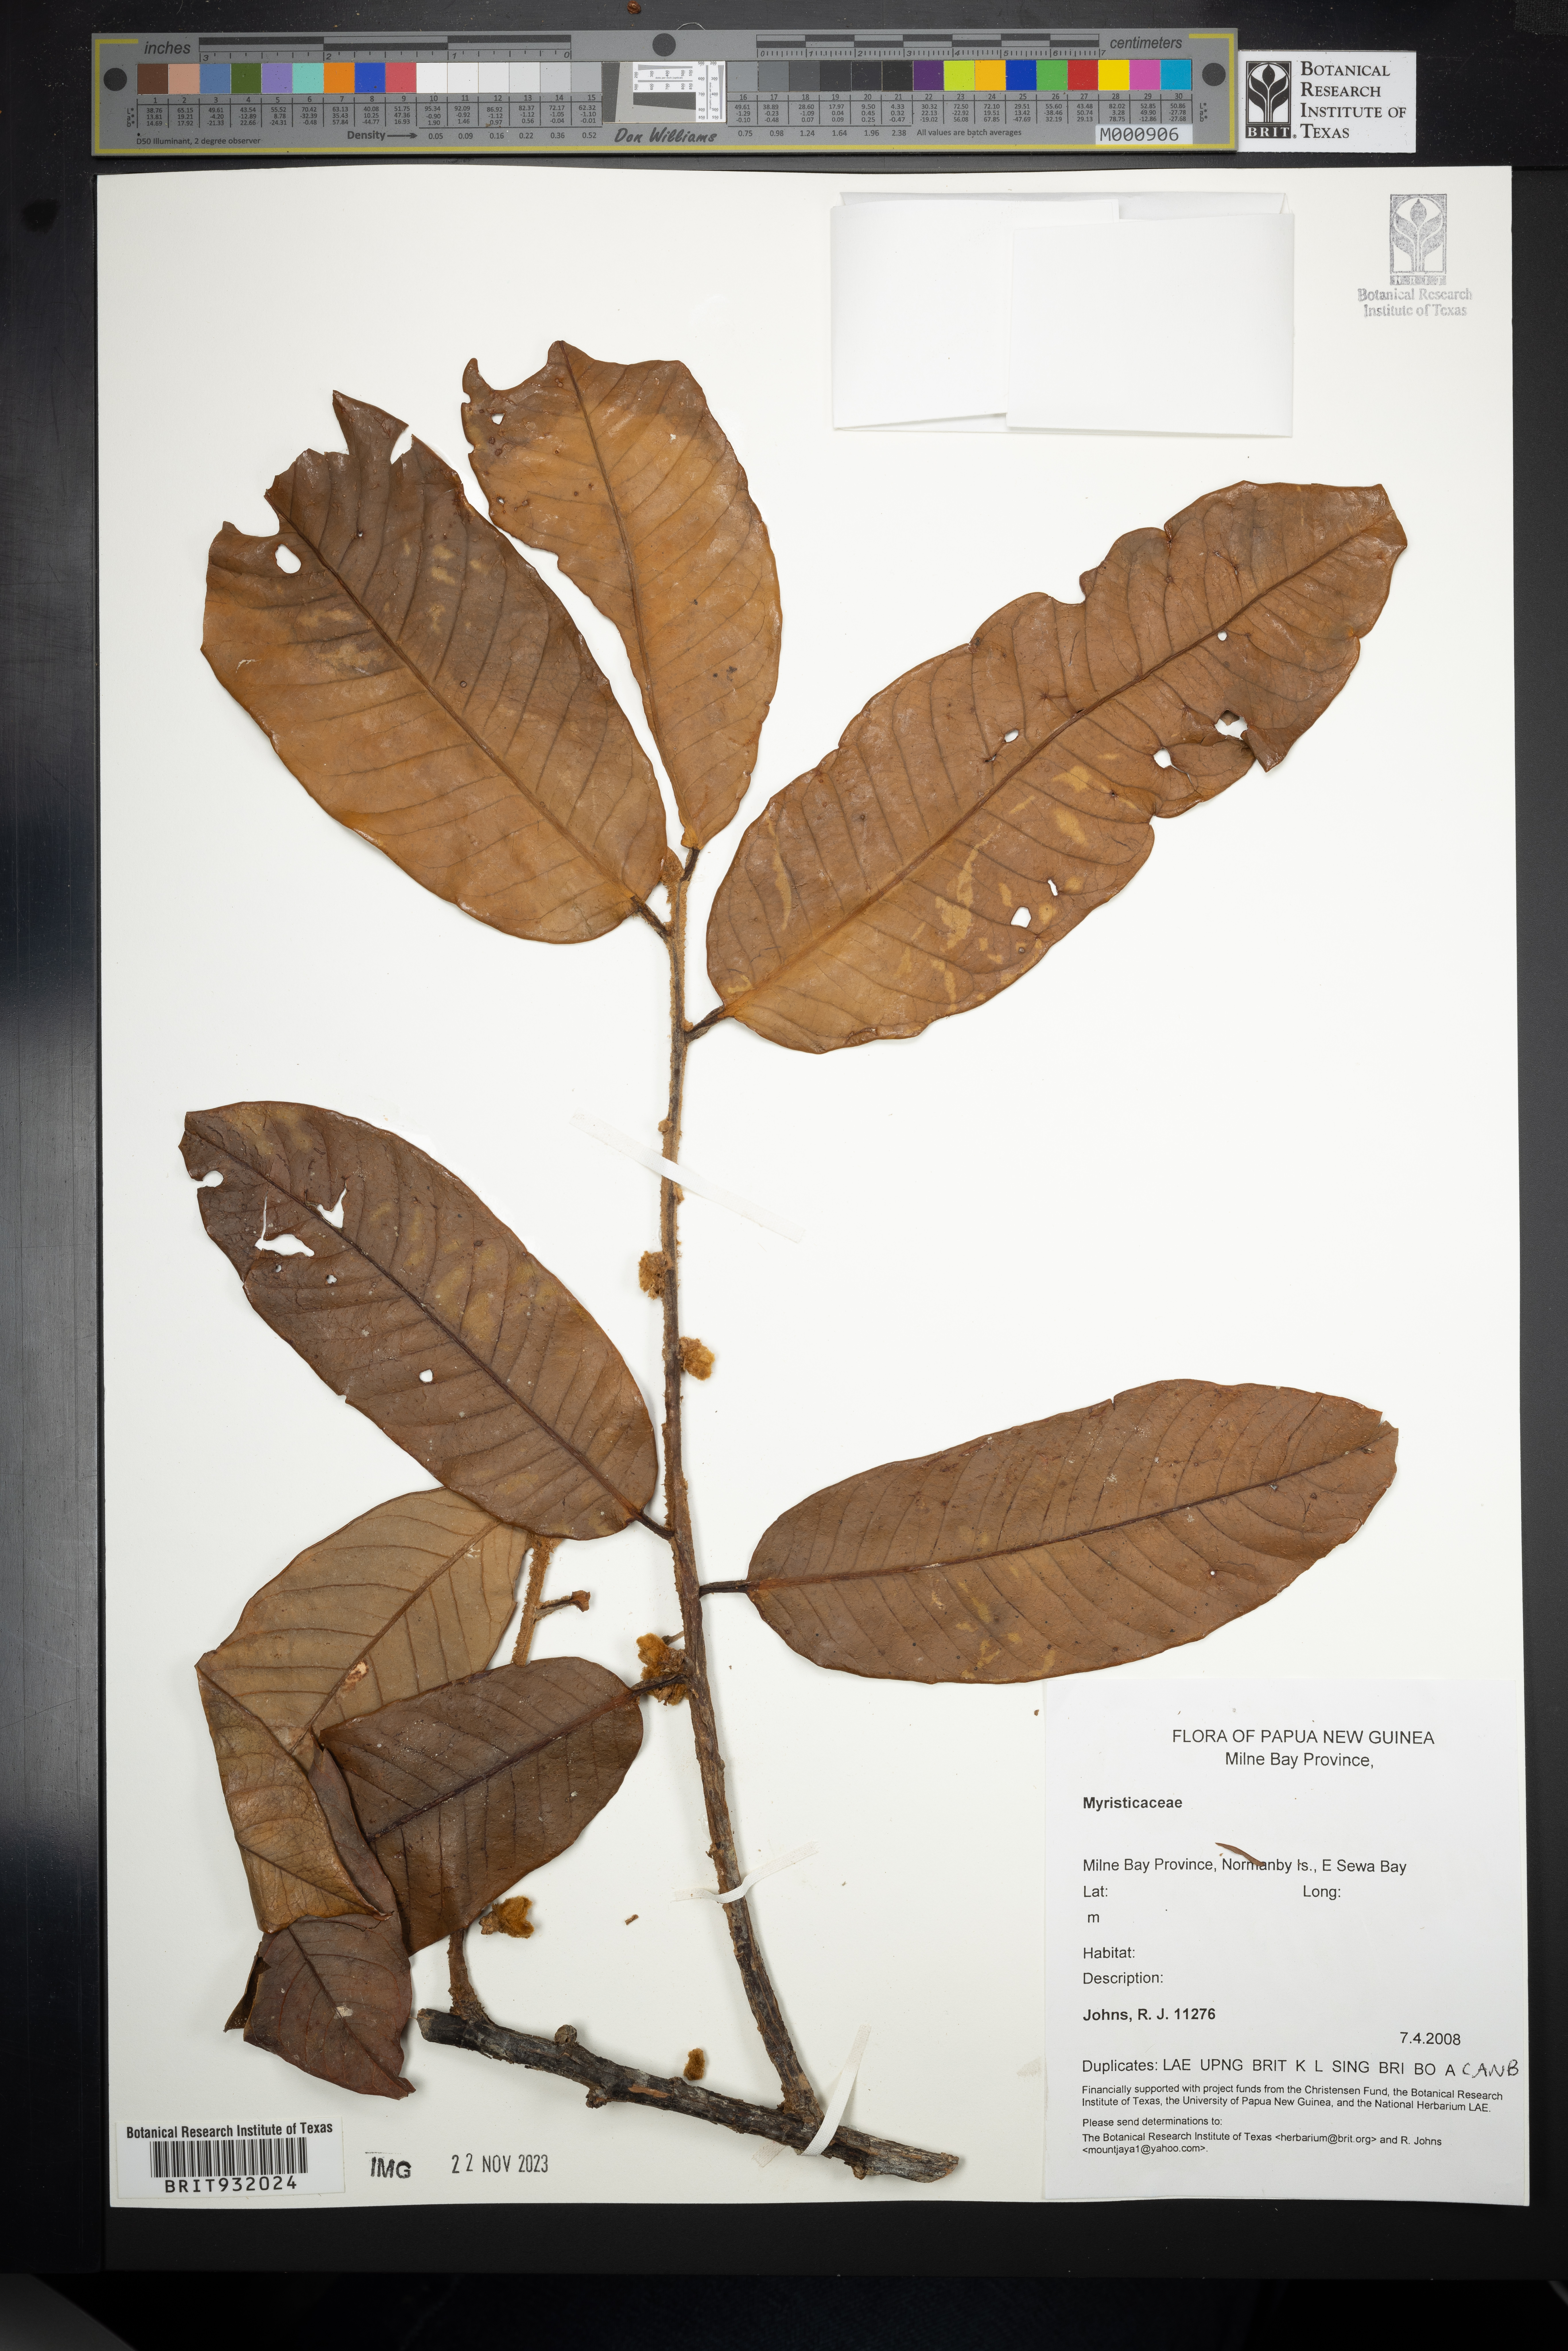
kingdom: Plantae
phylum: Tracheophyta
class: Magnoliopsida
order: Magnoliales
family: Myristicaceae
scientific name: Myristicaceae
